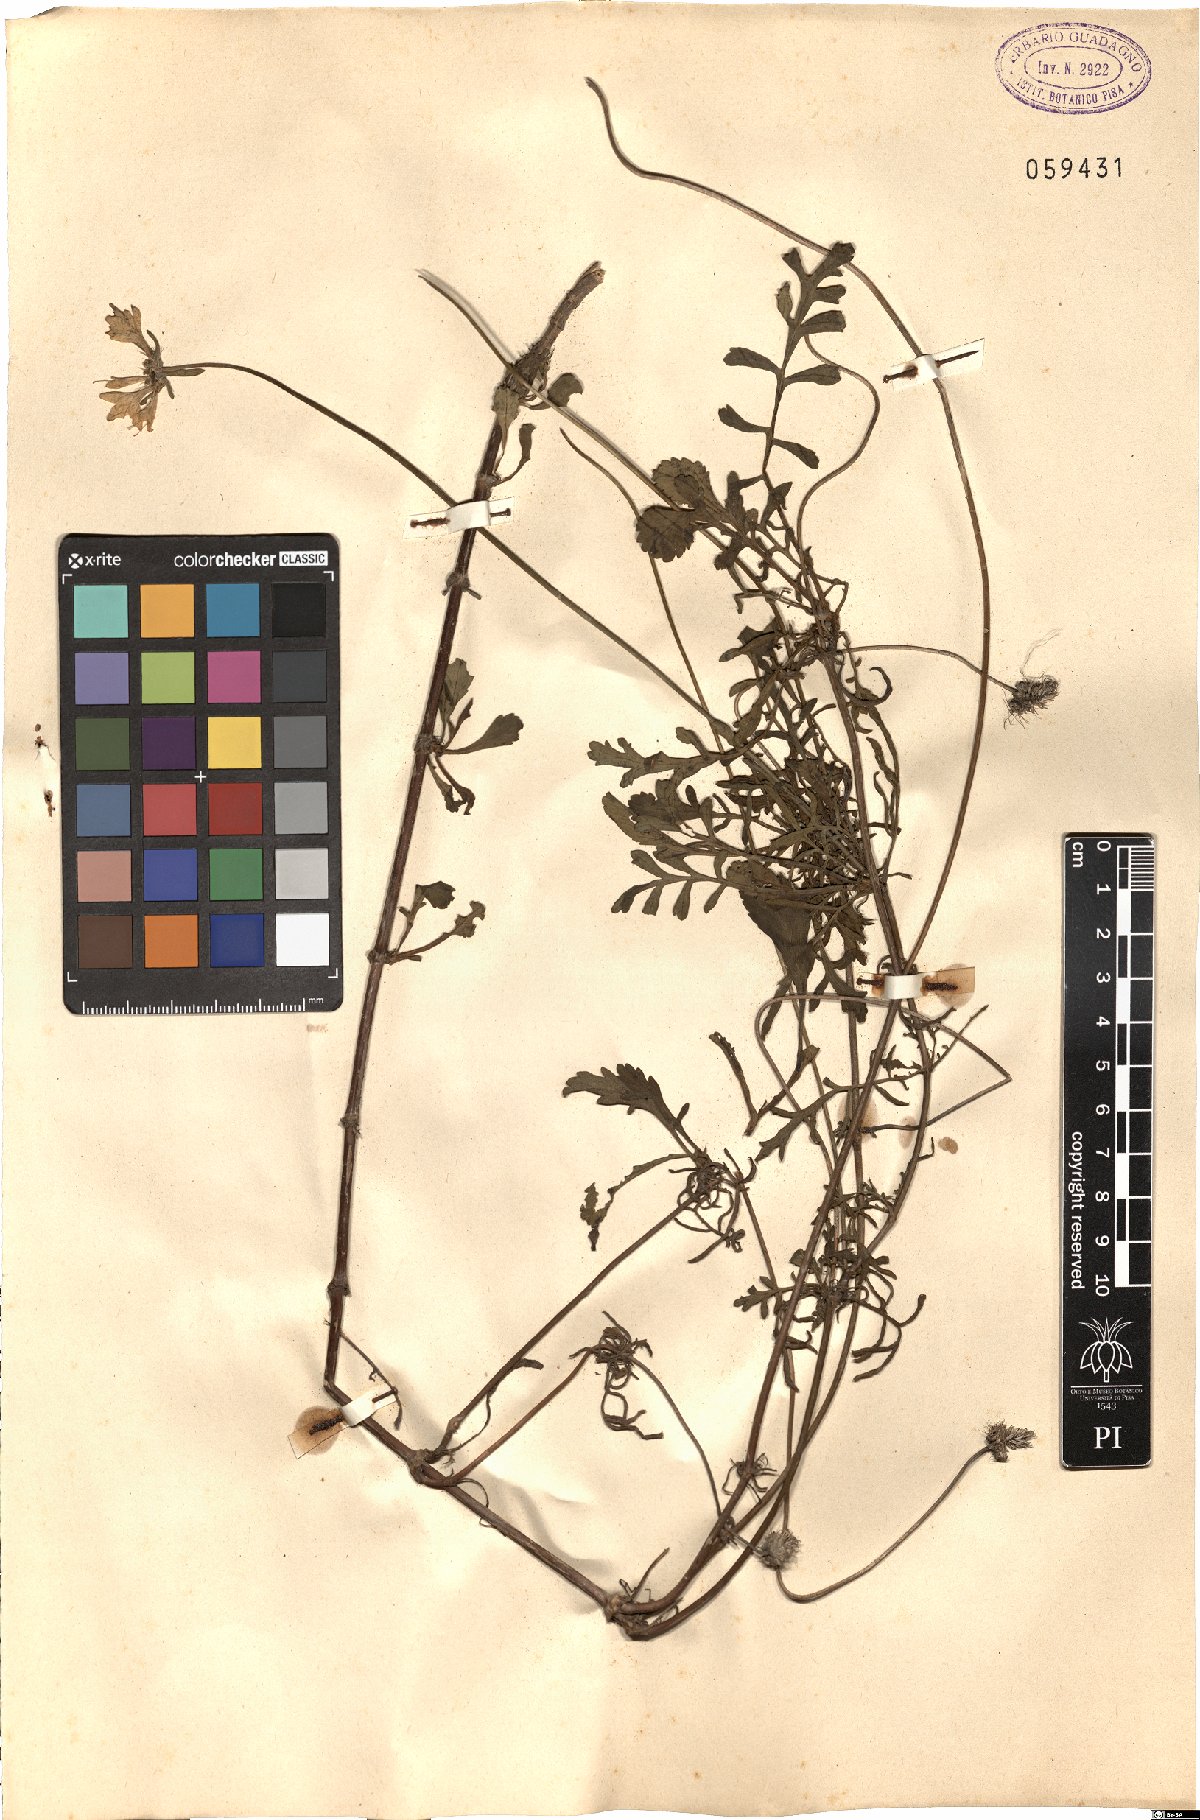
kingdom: Plantae
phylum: Tracheophyta
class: Magnoliopsida
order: Dipsacales
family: Caprifoliaceae
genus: Scabiosa
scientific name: Scabiosa
